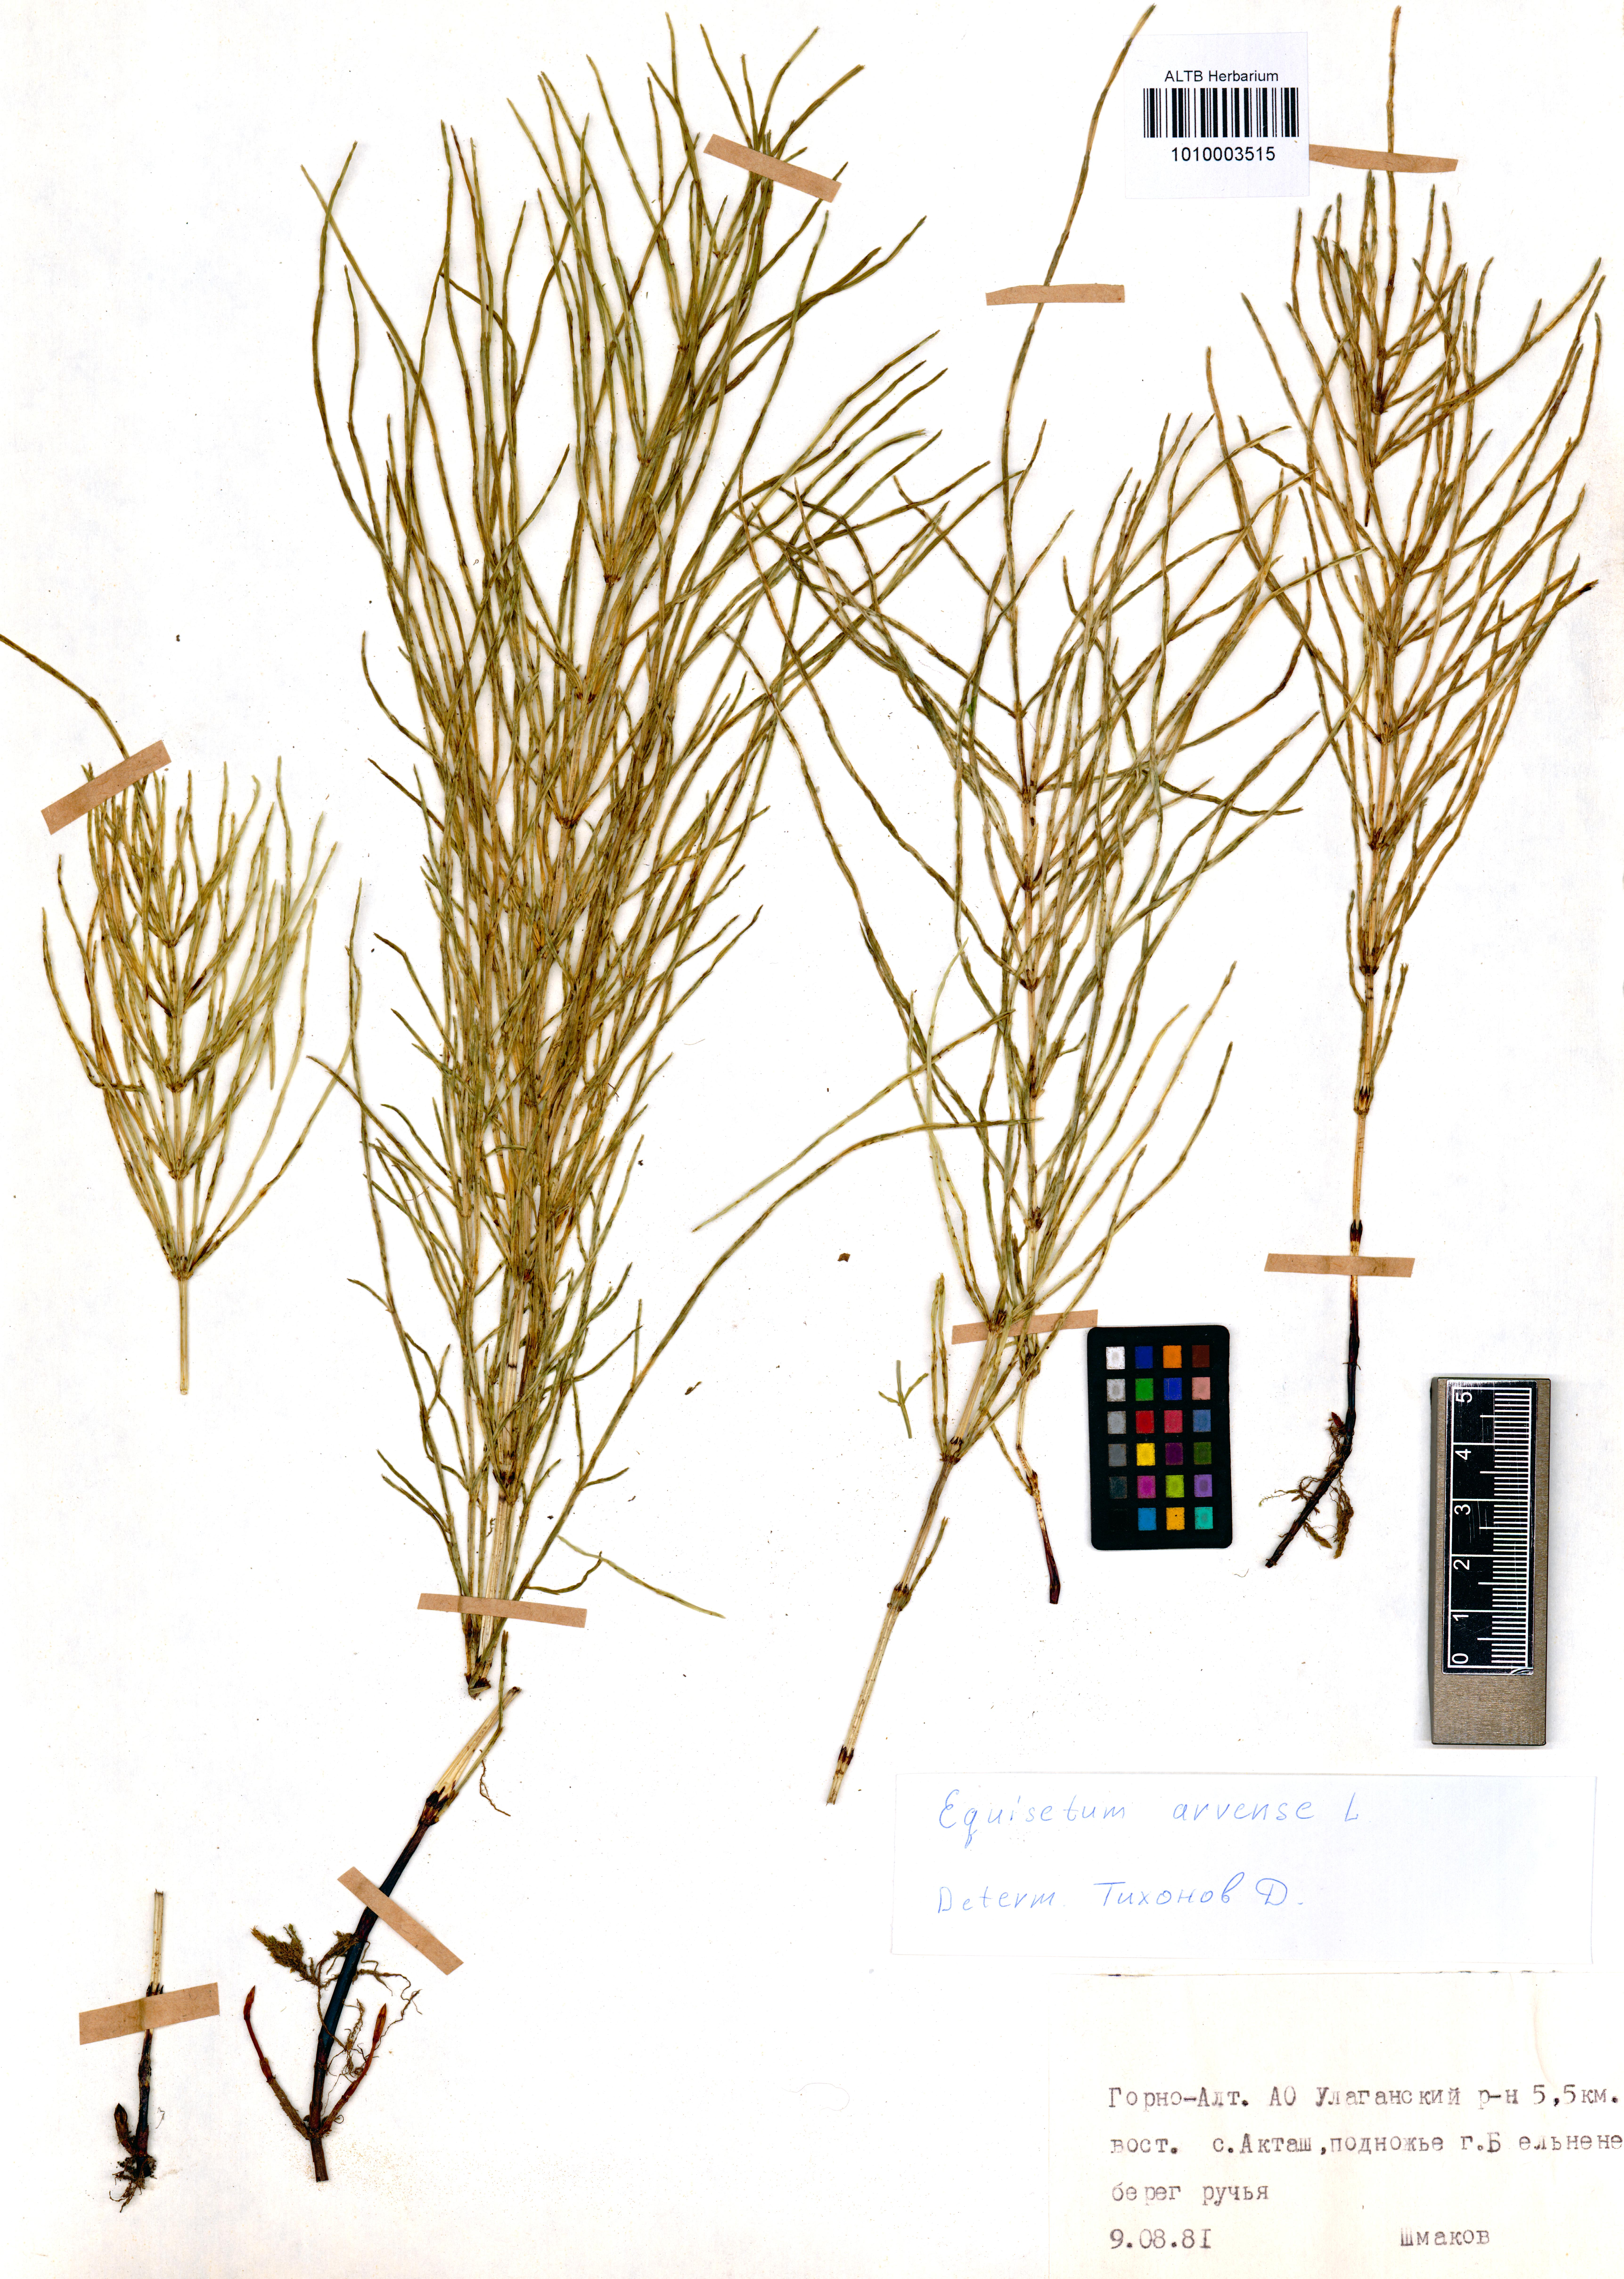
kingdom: Plantae
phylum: Tracheophyta
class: Polypodiopsida
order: Equisetales
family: Equisetaceae
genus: Equisetum
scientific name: Equisetum arvense
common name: Field horsetail
